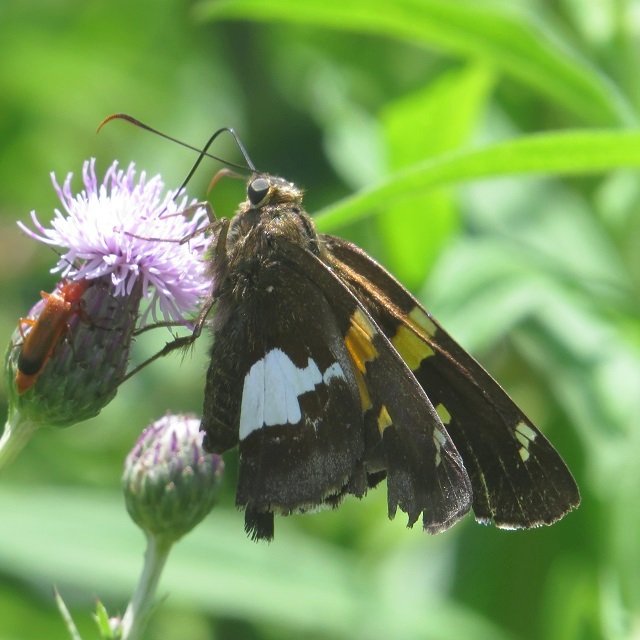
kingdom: Animalia
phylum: Arthropoda
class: Insecta
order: Lepidoptera
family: Hesperiidae
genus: Epargyreus
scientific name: Epargyreus clarus
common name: Silver-spotted Skipper
